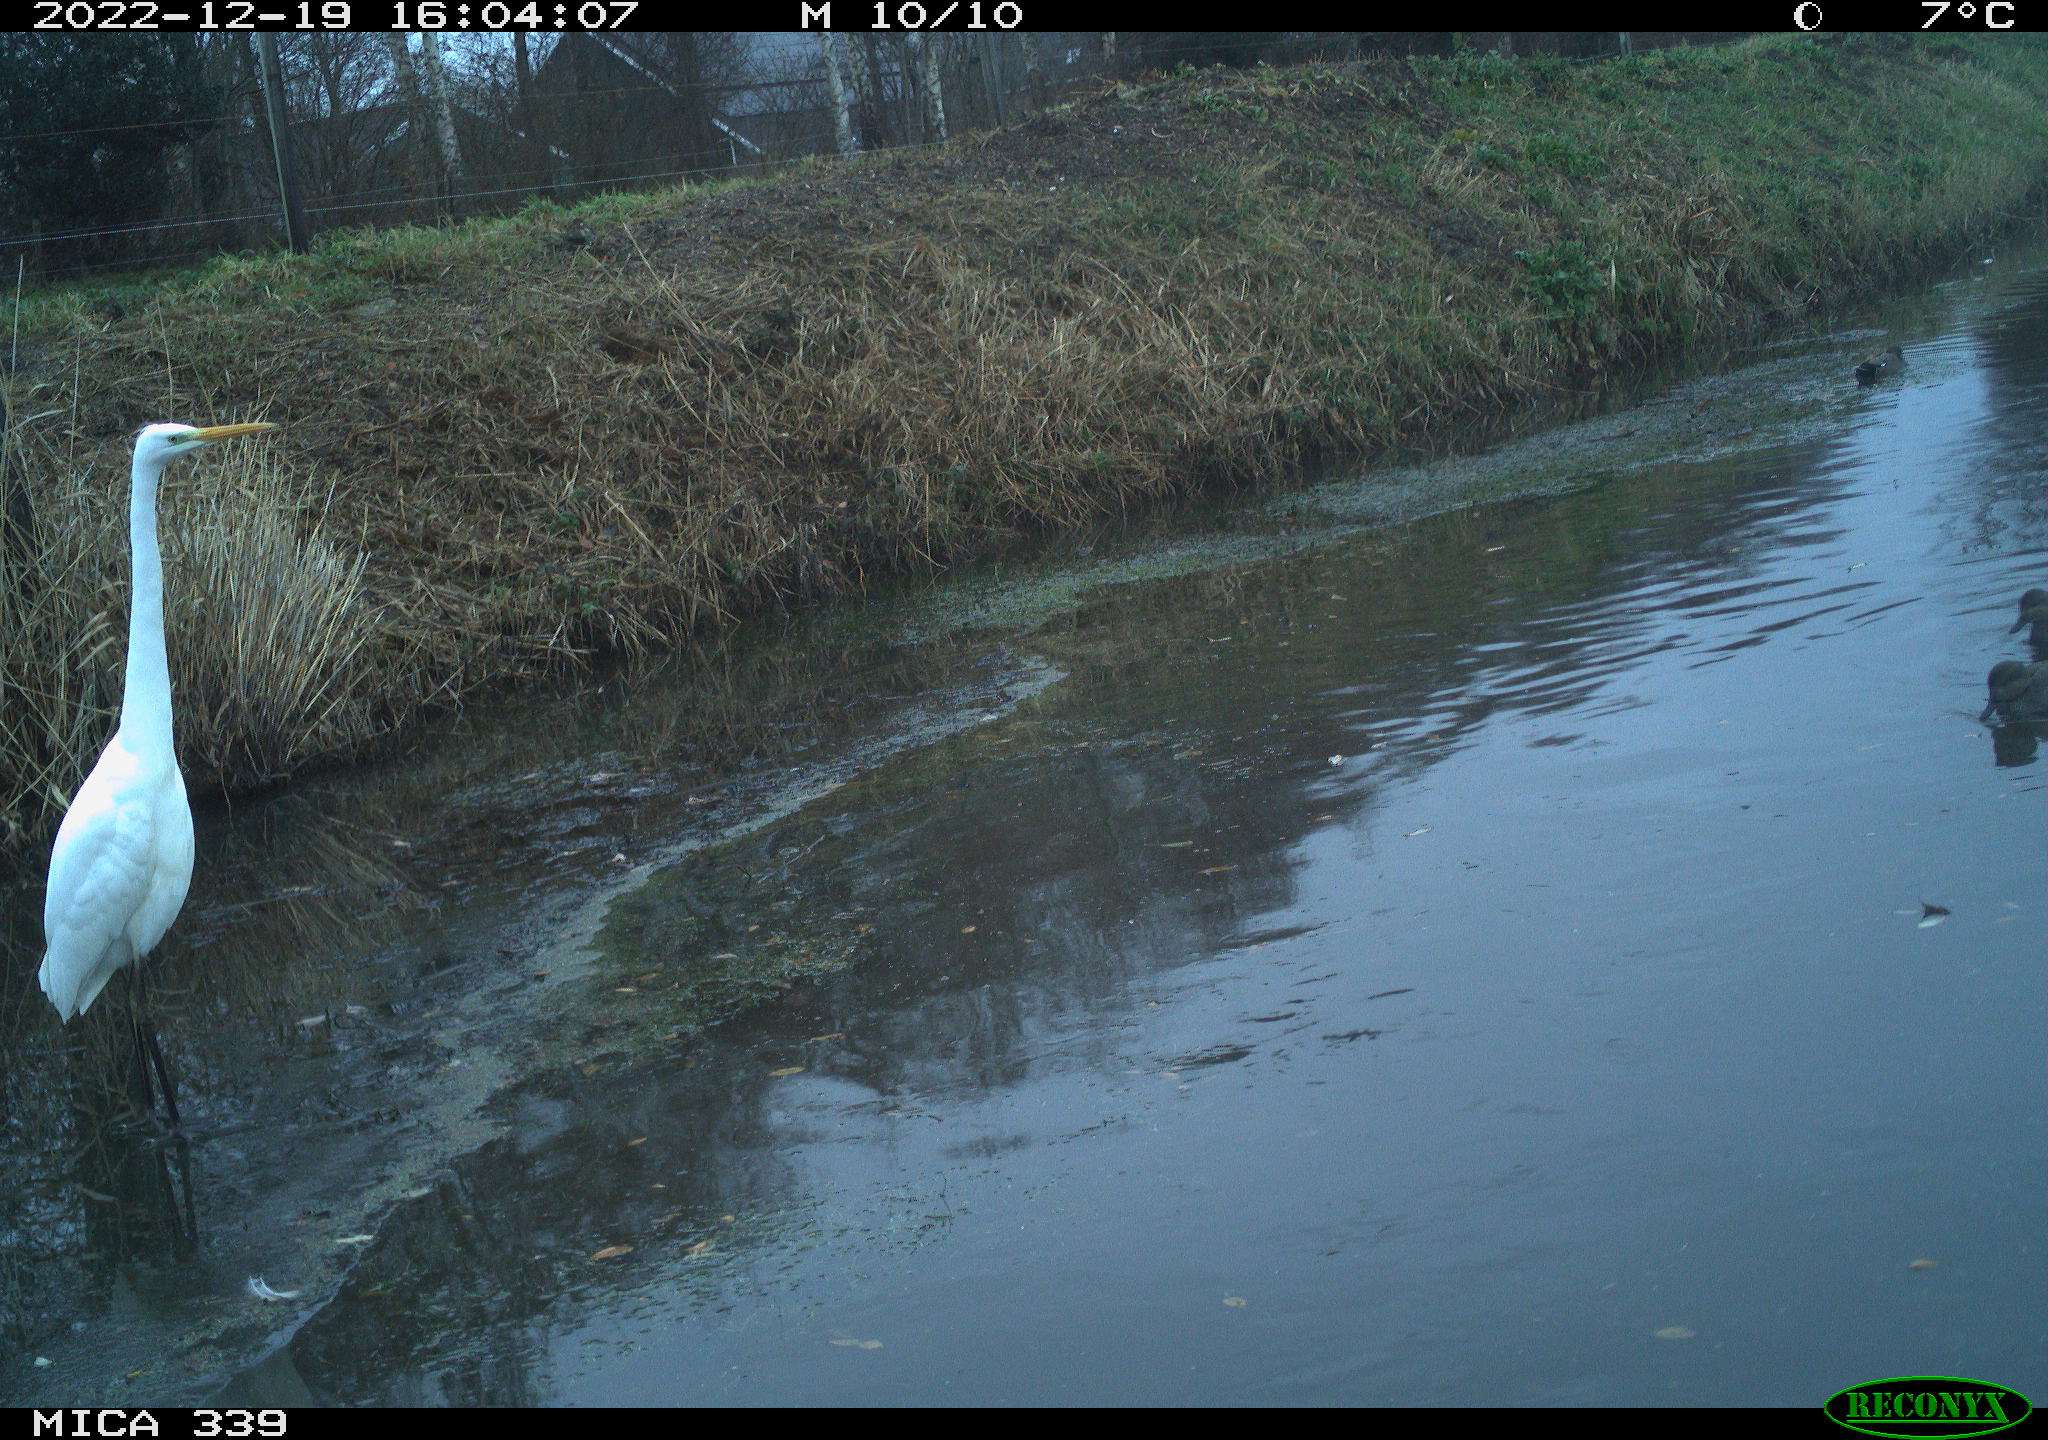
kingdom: Animalia
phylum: Chordata
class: Aves
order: Pelecaniformes
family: Ardeidae
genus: Ardea
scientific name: Ardea alba
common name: Great egret
